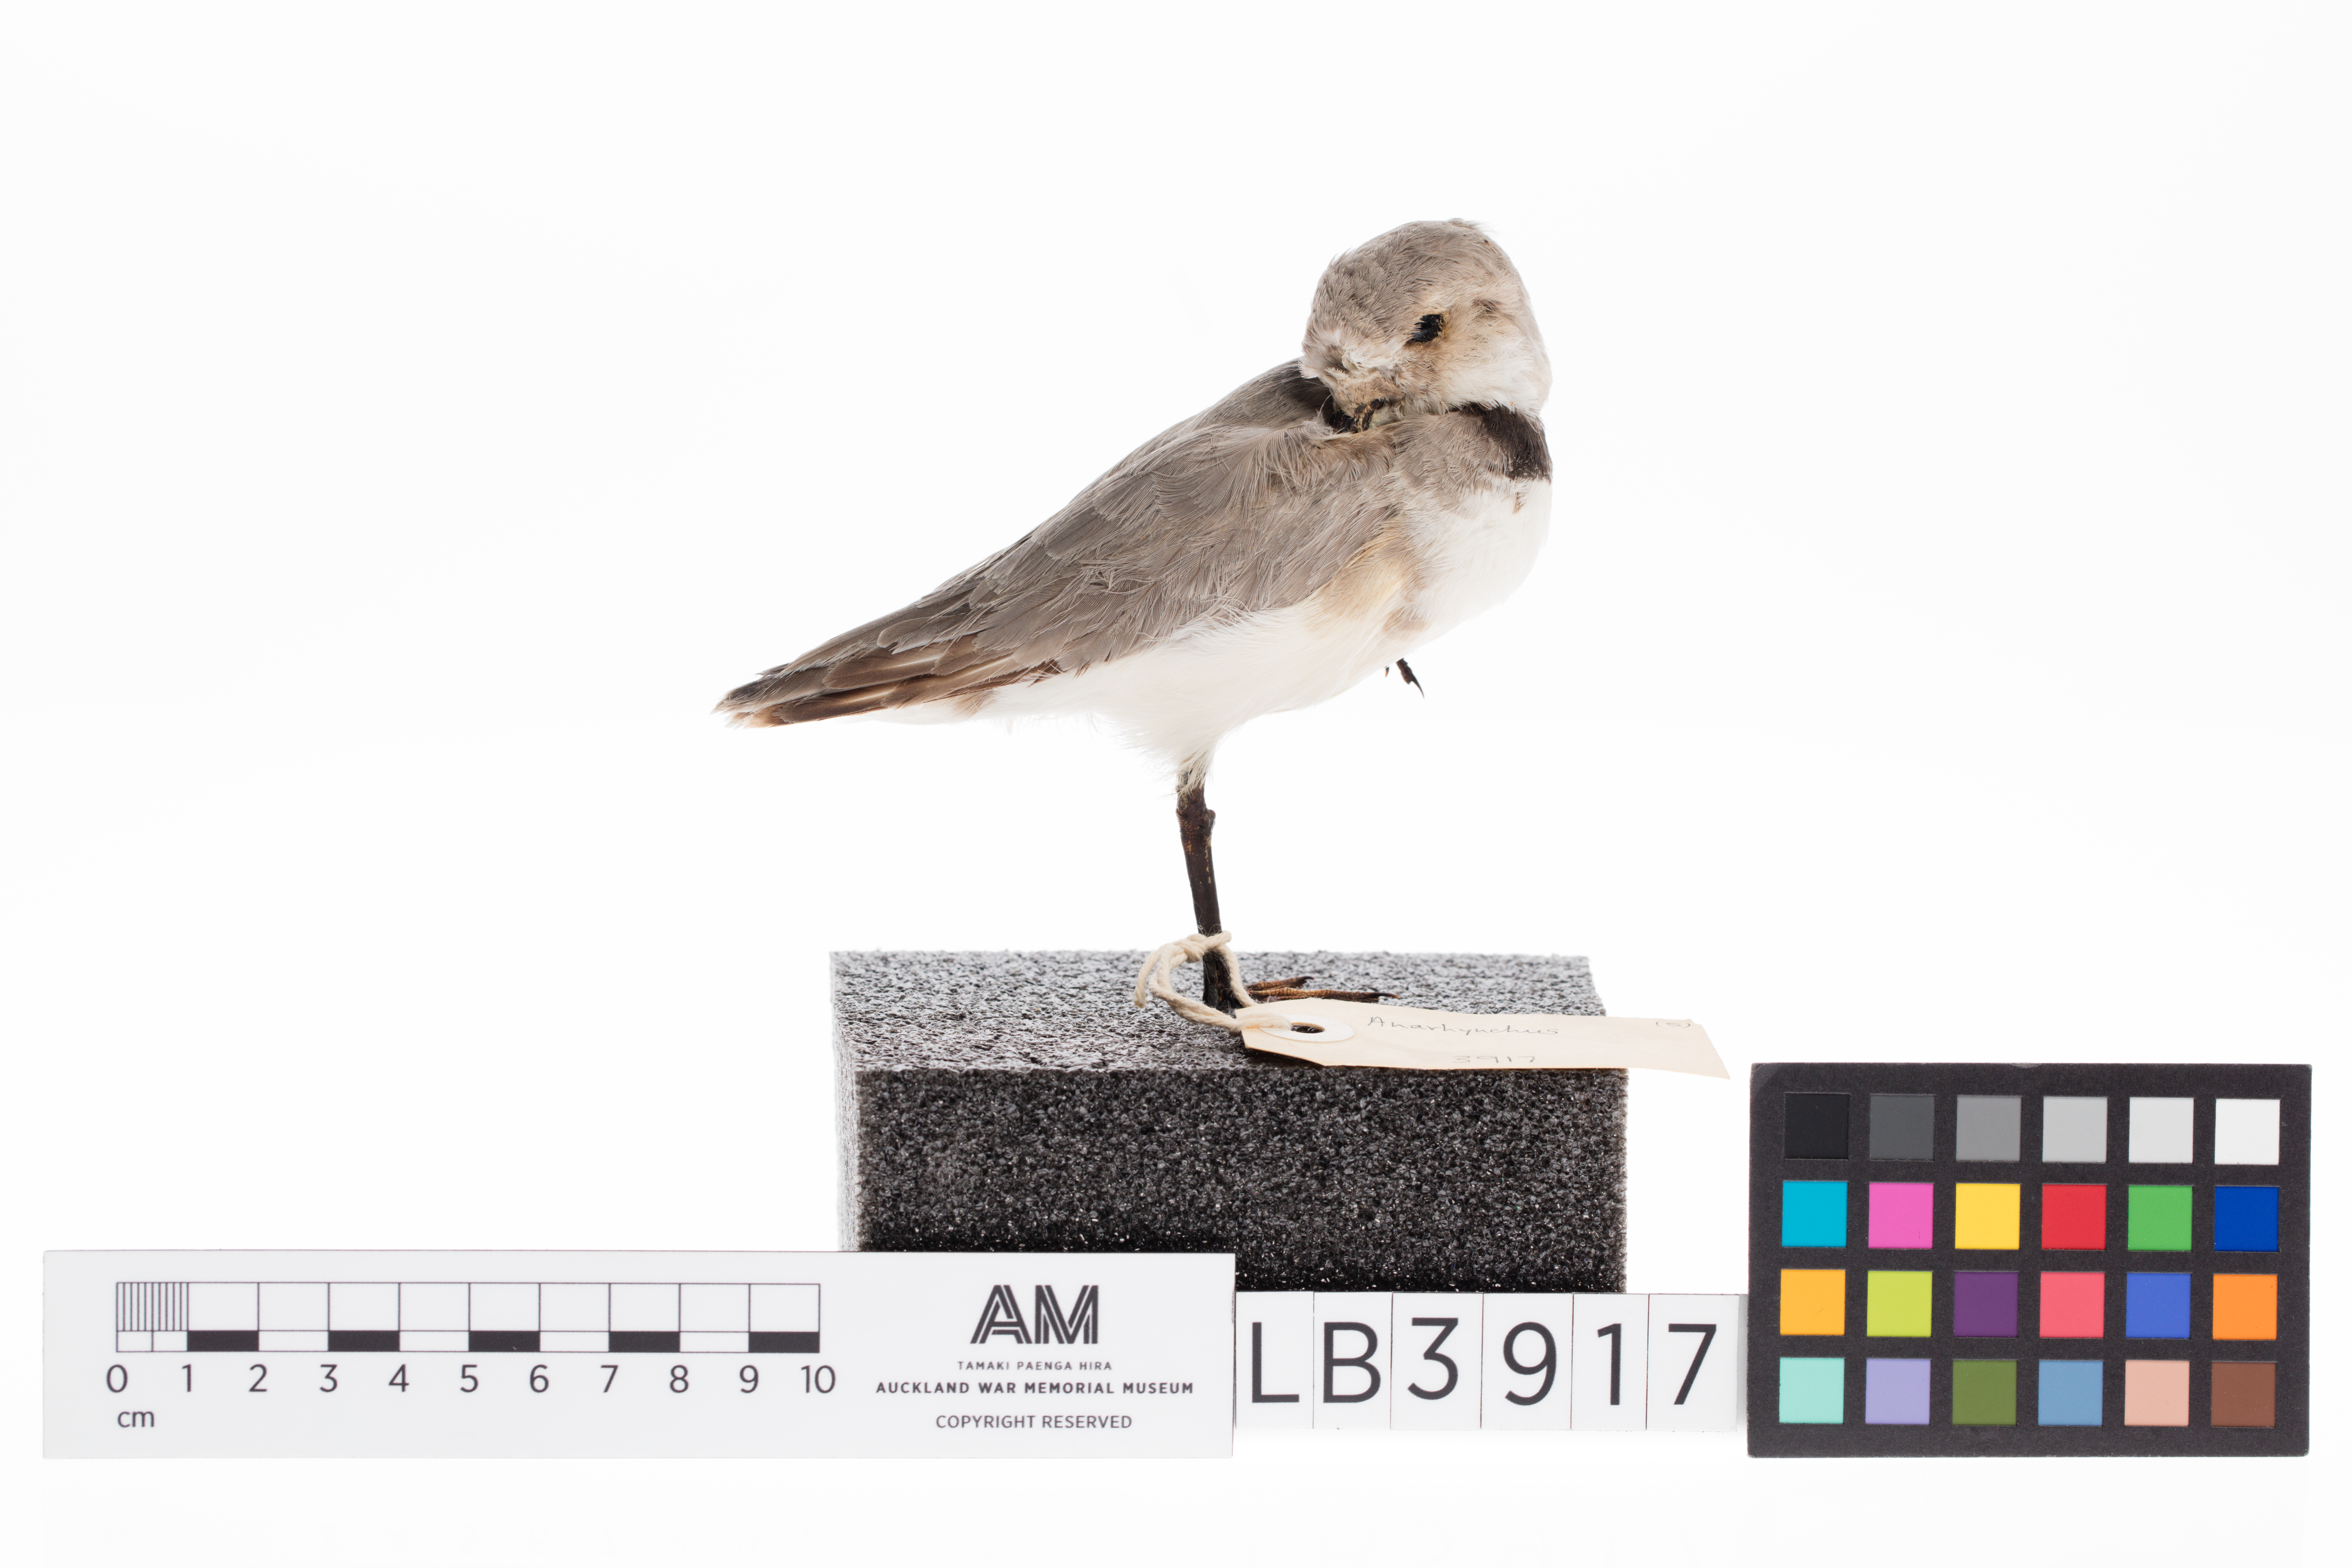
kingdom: Animalia
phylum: Chordata
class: Aves
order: Charadriiformes
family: Charadriidae
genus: Charadrius
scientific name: Charadrius frontalis
